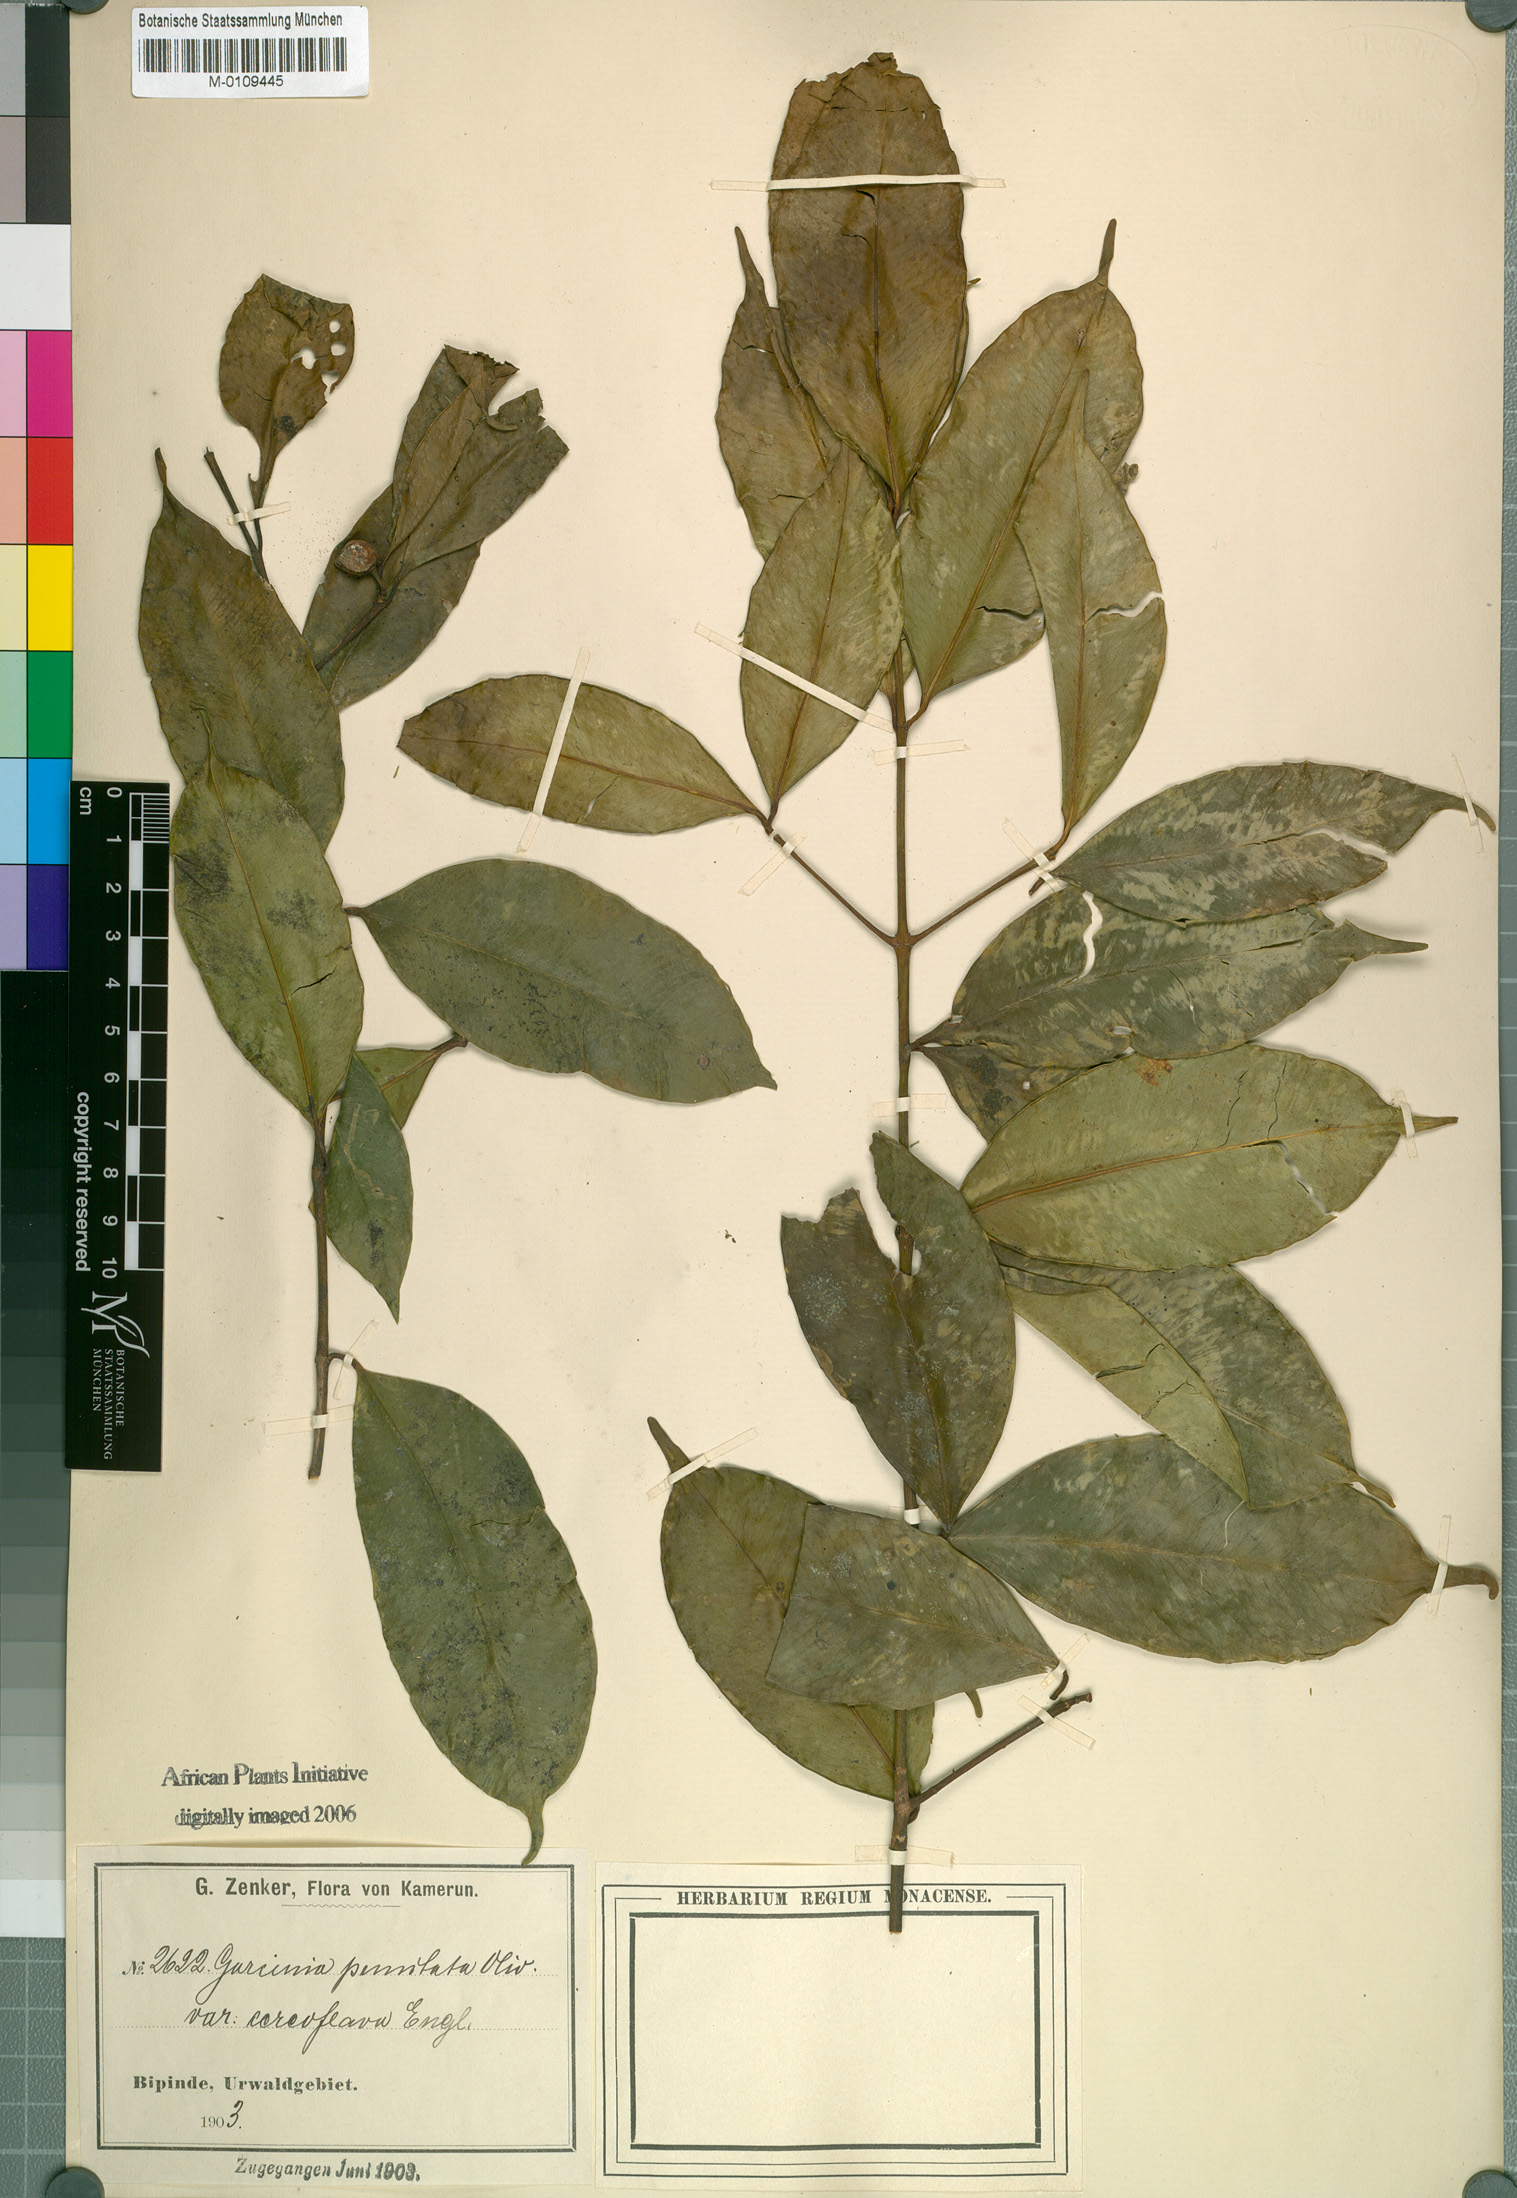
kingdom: Plantae
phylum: Tracheophyta
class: Magnoliopsida
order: Malpighiales
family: Clusiaceae
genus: Garcinia
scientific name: Garcinia punctata
